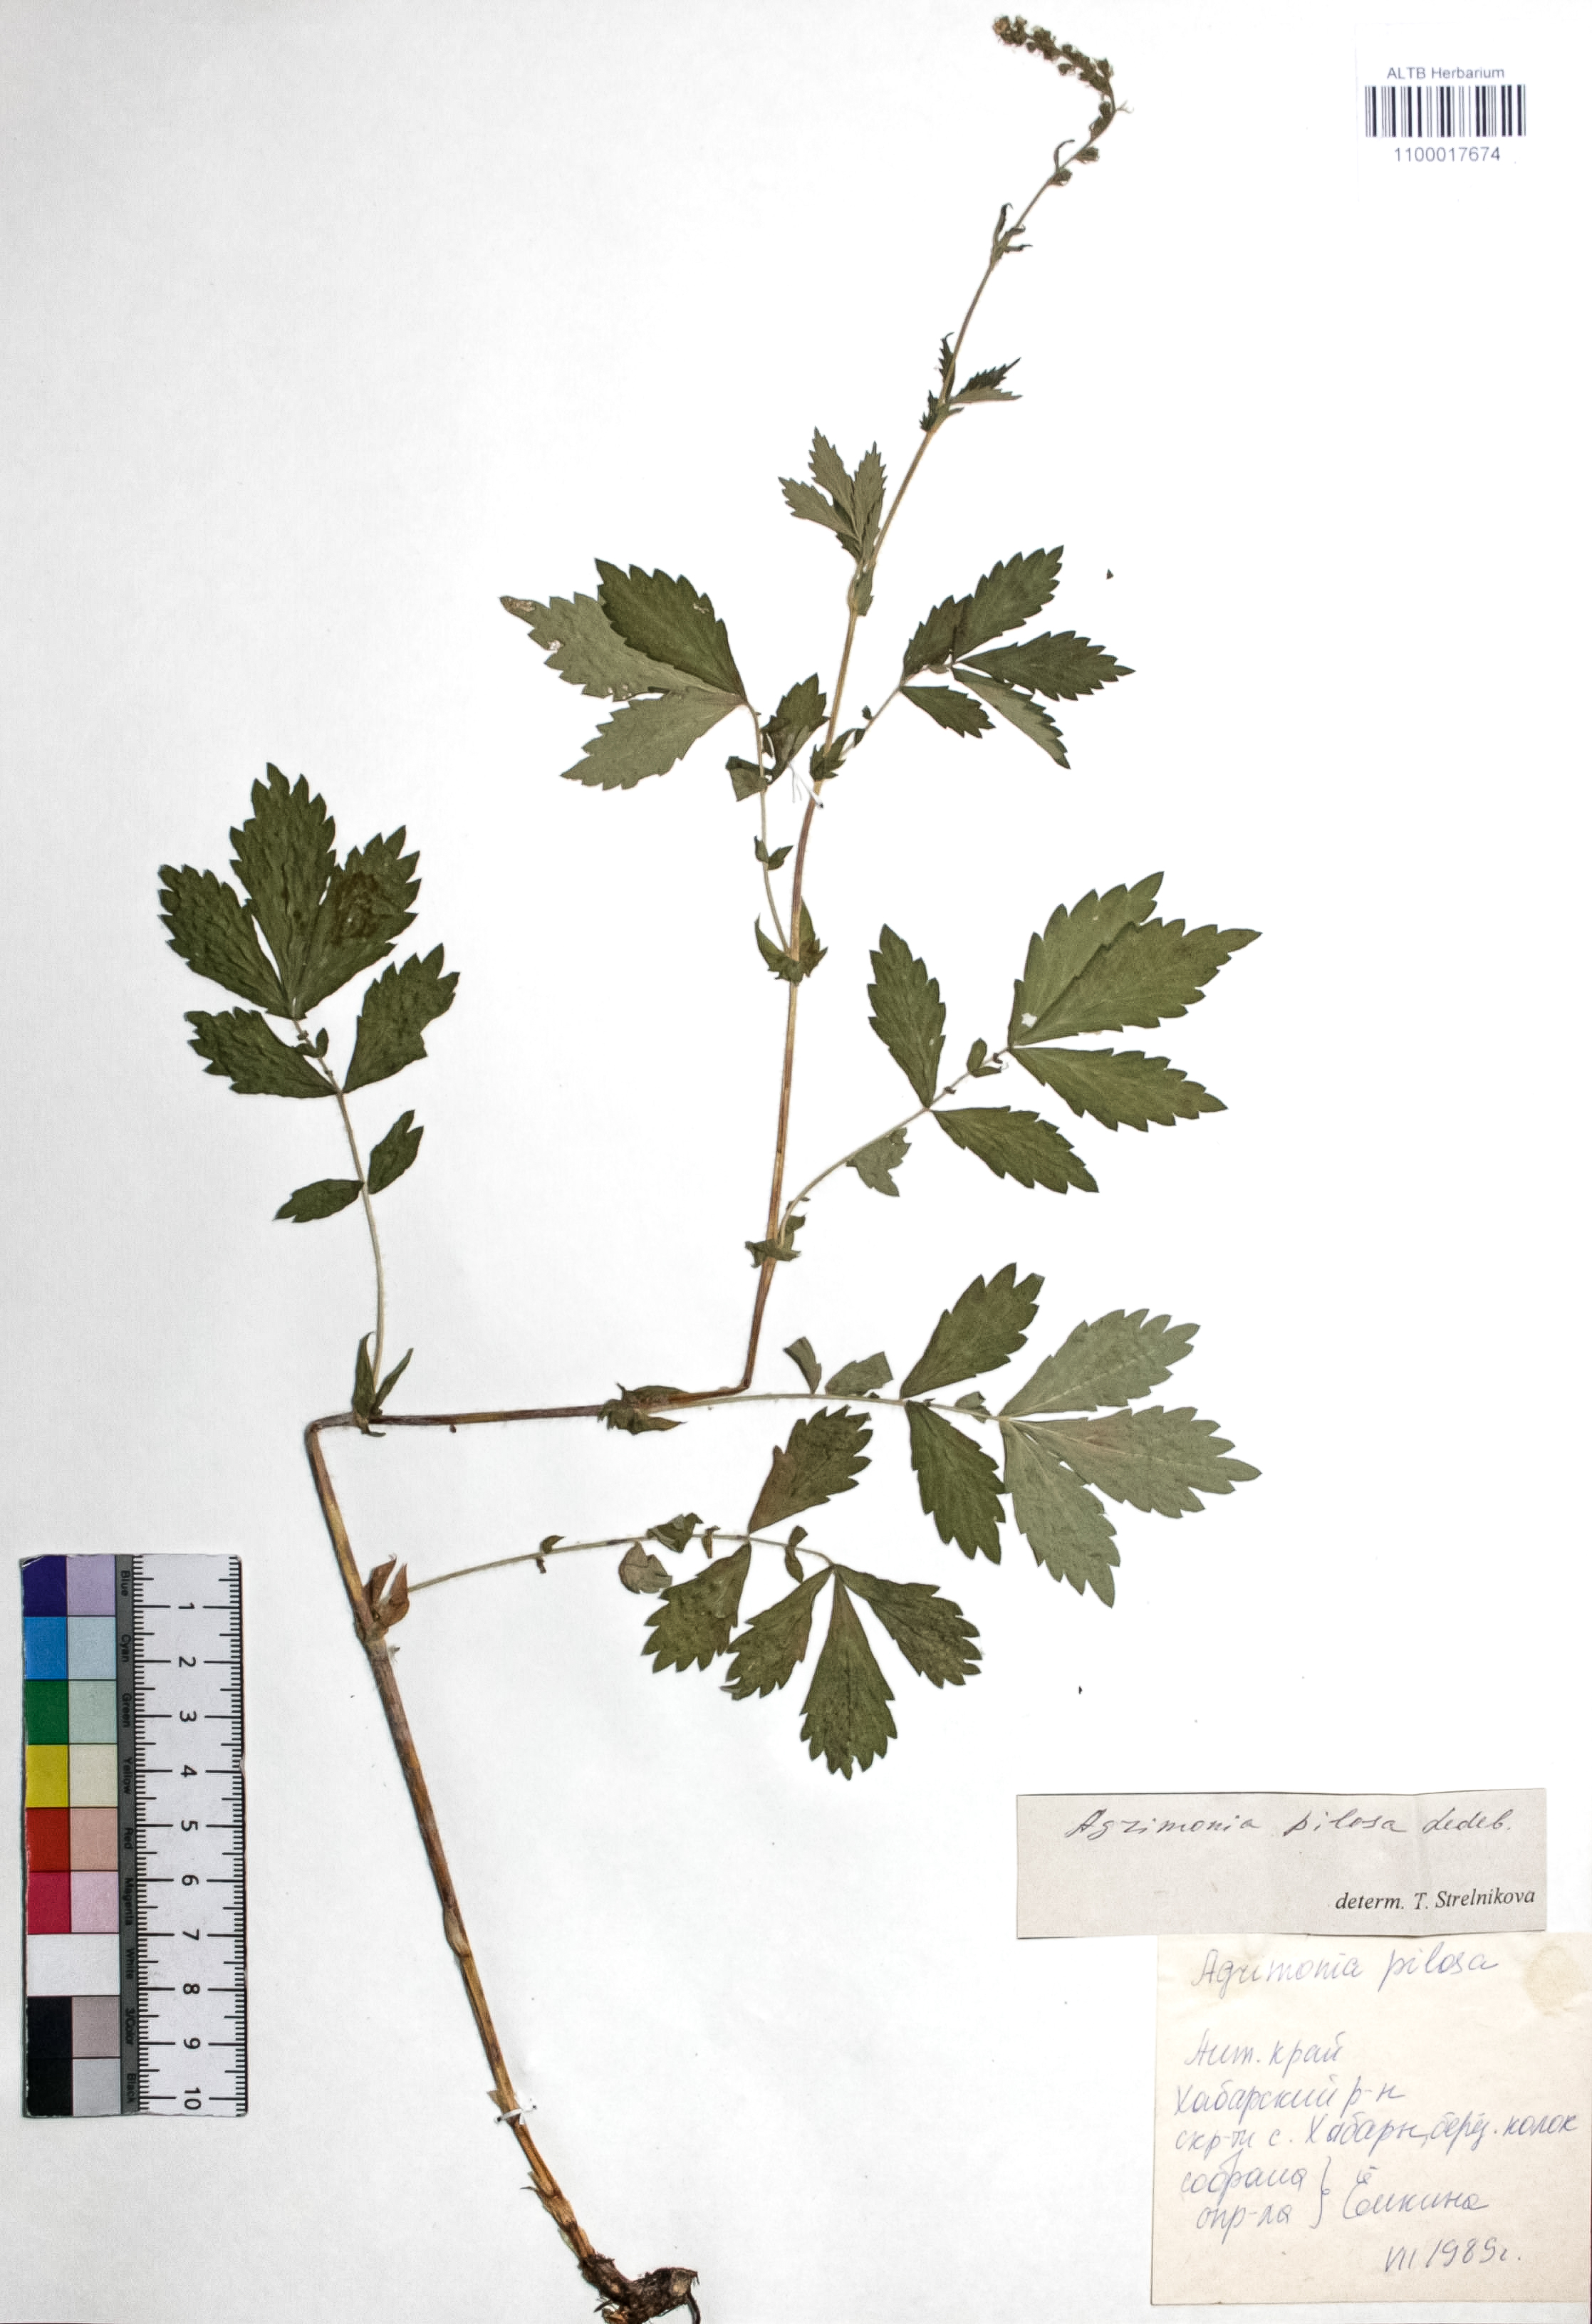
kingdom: Plantae
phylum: Tracheophyta
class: Magnoliopsida
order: Rosales
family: Rosaceae
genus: Agrimonia
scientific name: Agrimonia pilosa
